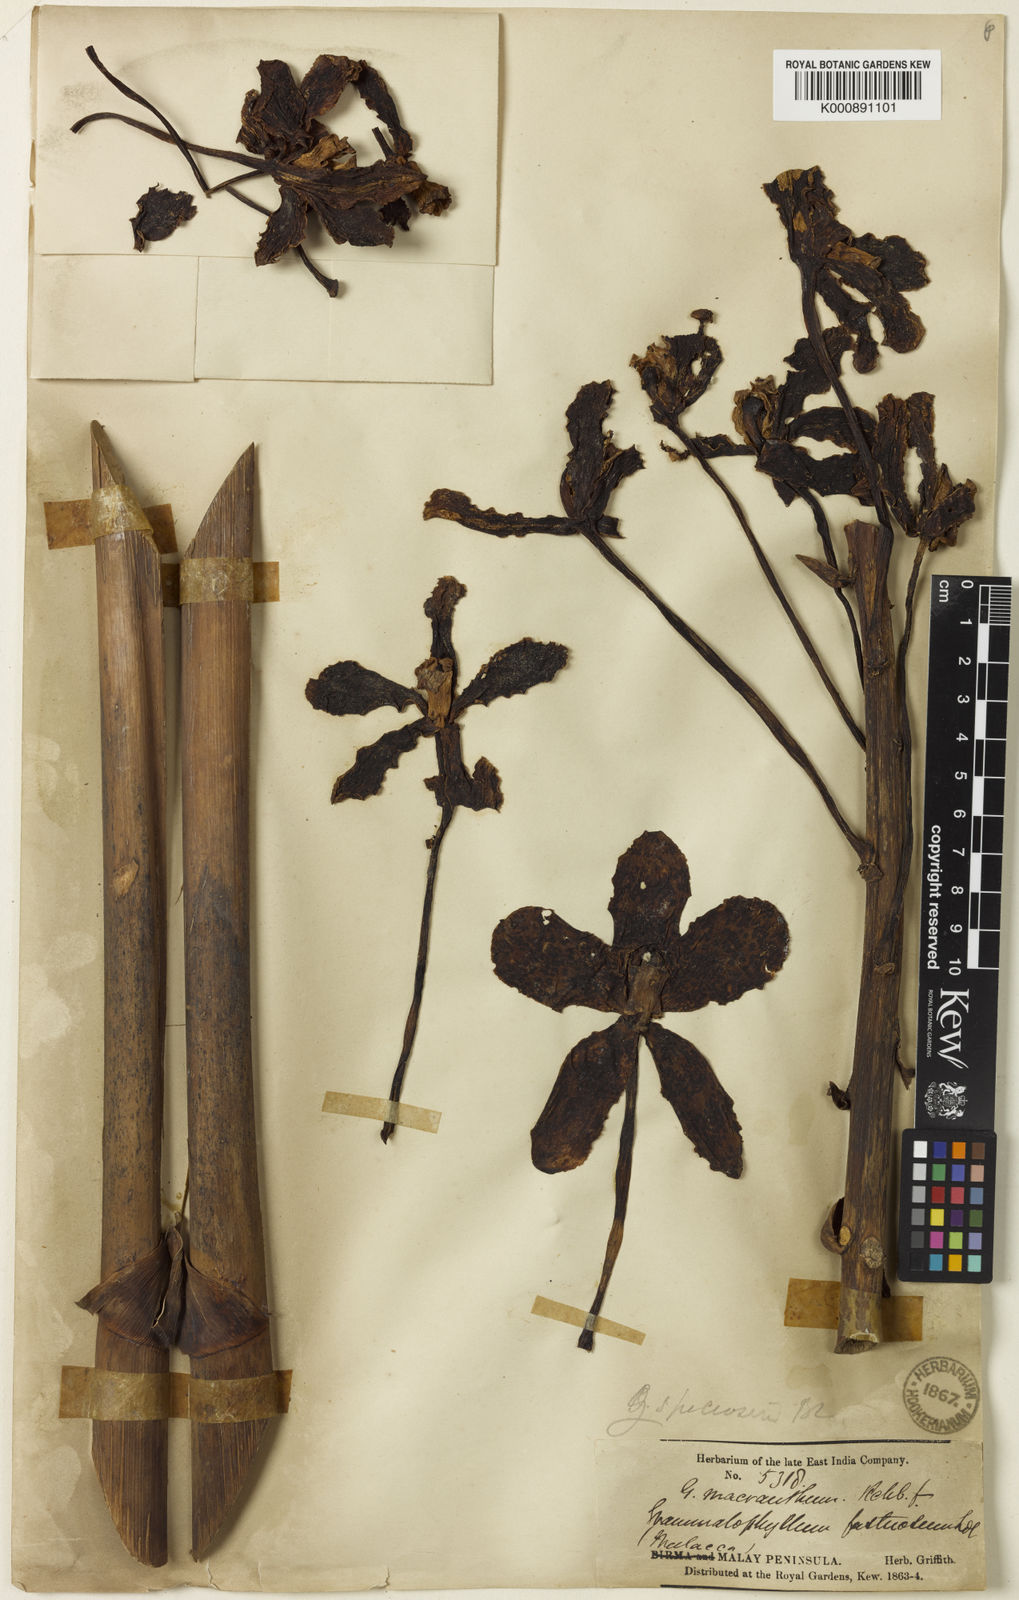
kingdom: Plantae
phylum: Tracheophyta
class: Liliopsida
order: Asparagales
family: Orchidaceae
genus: Grammatophyllum
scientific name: Grammatophyllum speciosum
